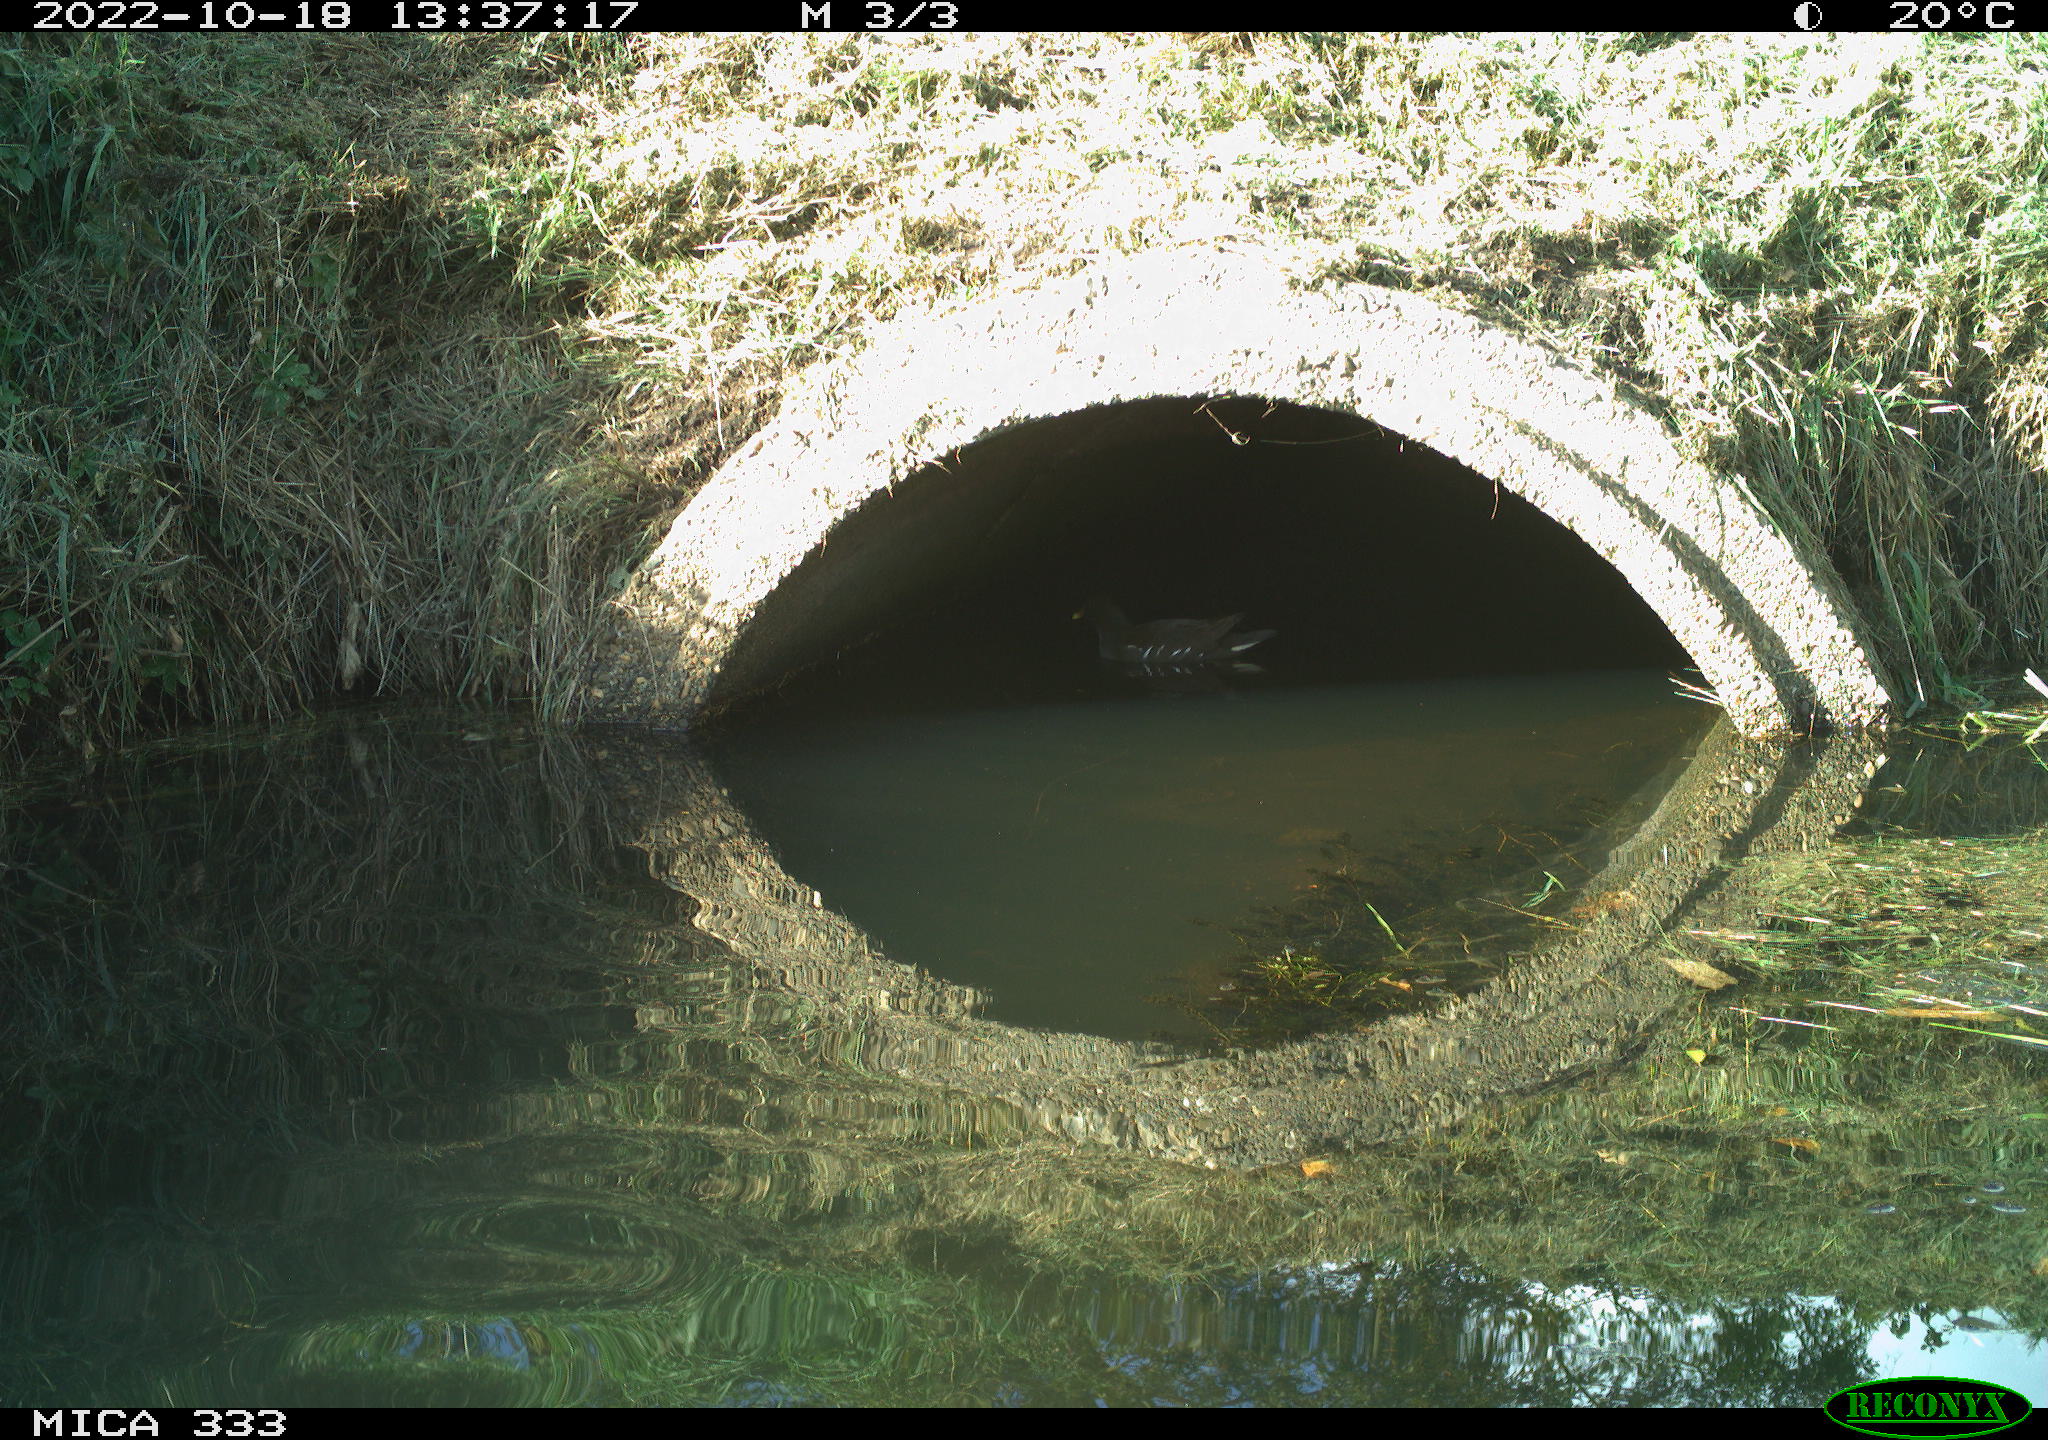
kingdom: Animalia
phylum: Chordata
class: Aves
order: Gruiformes
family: Rallidae
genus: Gallinula
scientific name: Gallinula chloropus
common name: Common moorhen
